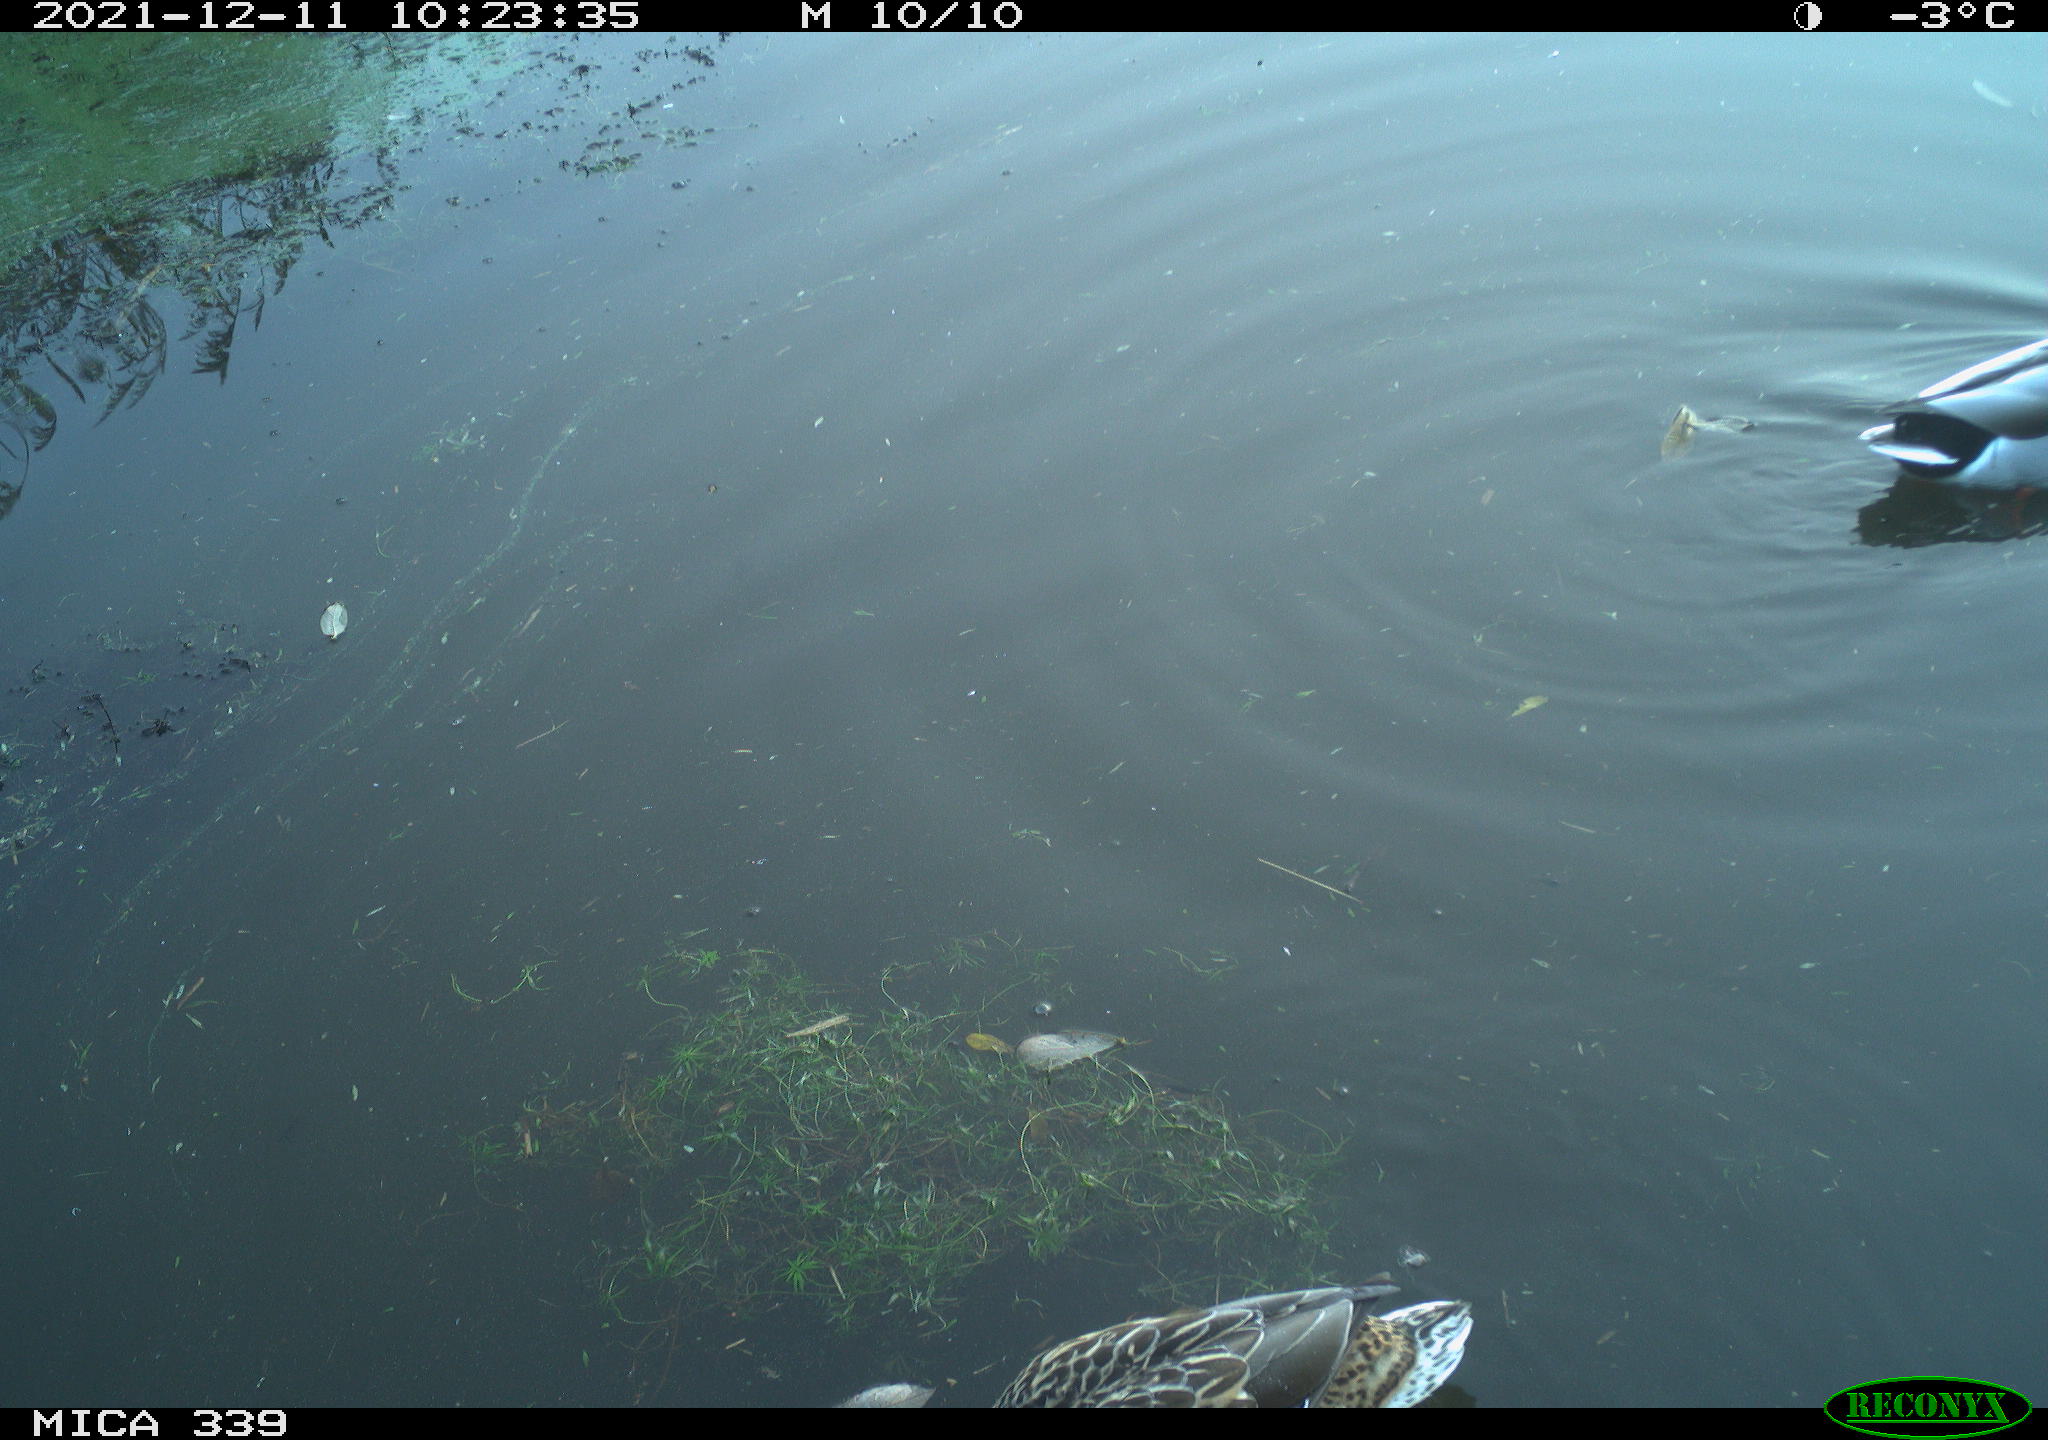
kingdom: Animalia
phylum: Chordata
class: Aves
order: Anseriformes
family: Anatidae
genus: Anas
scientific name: Anas platyrhynchos
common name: Mallard
